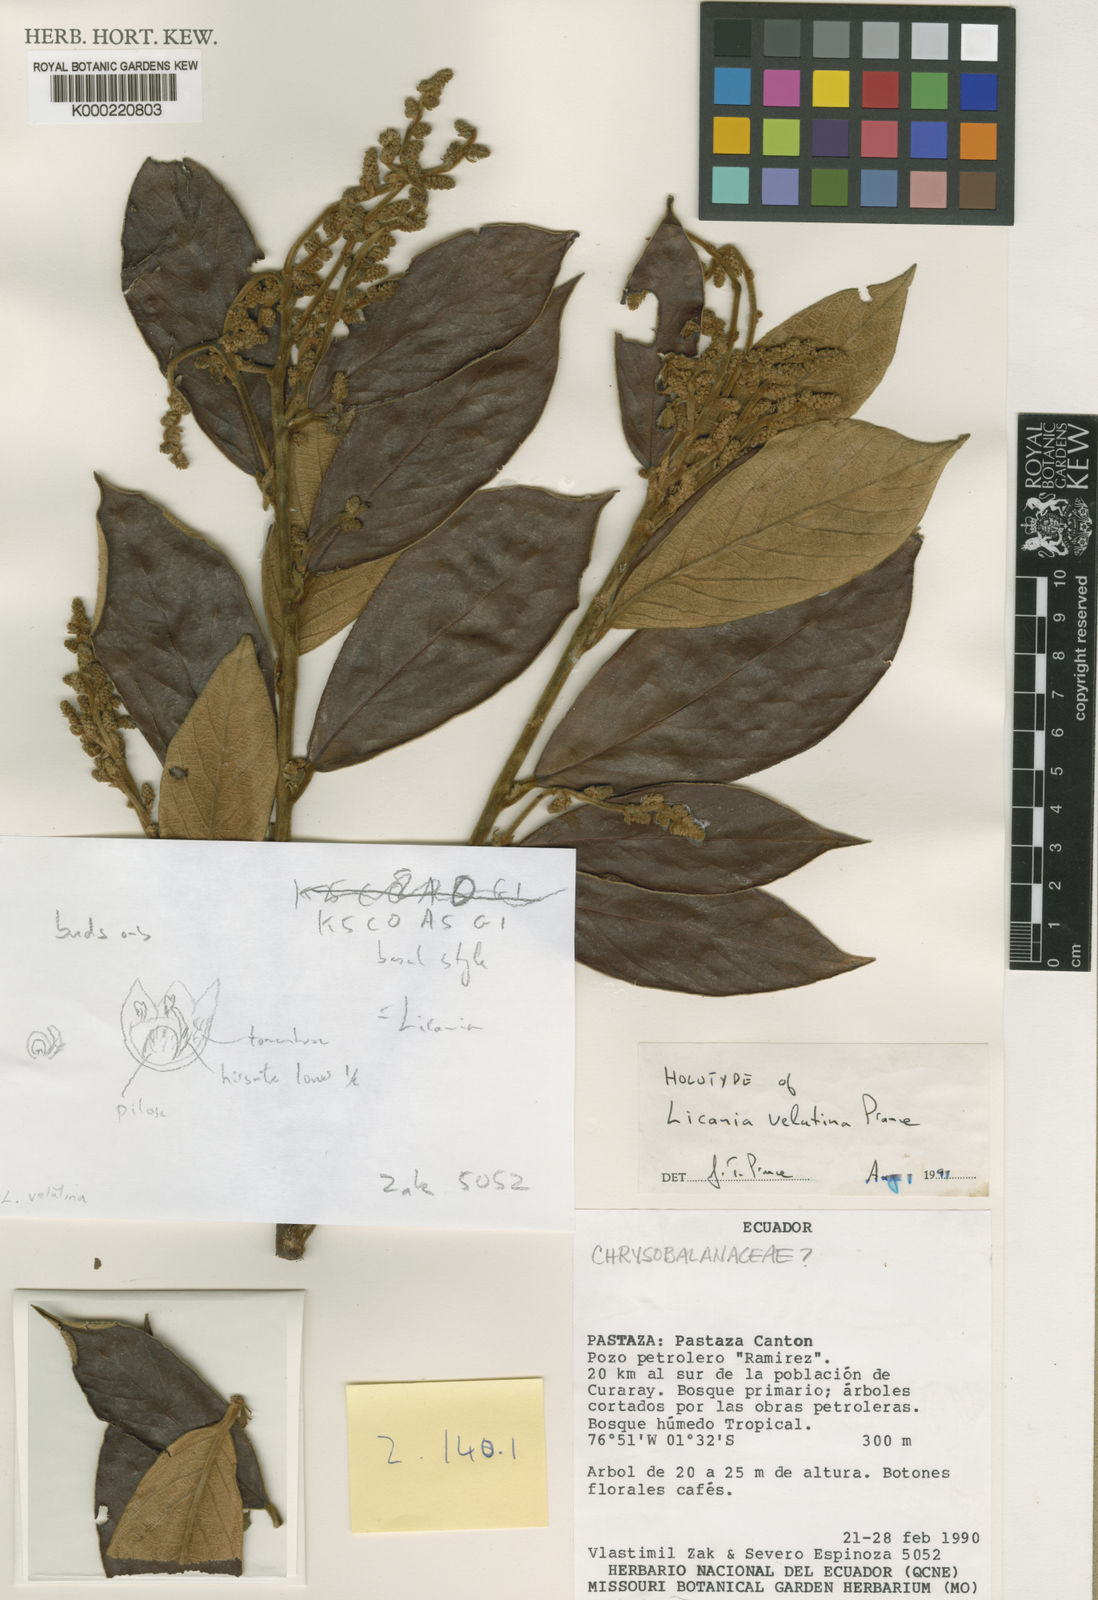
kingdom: Plantae
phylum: Tracheophyta
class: Magnoliopsida
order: Malpighiales
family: Chrysobalanaceae
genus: Licania
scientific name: Licania velutina
